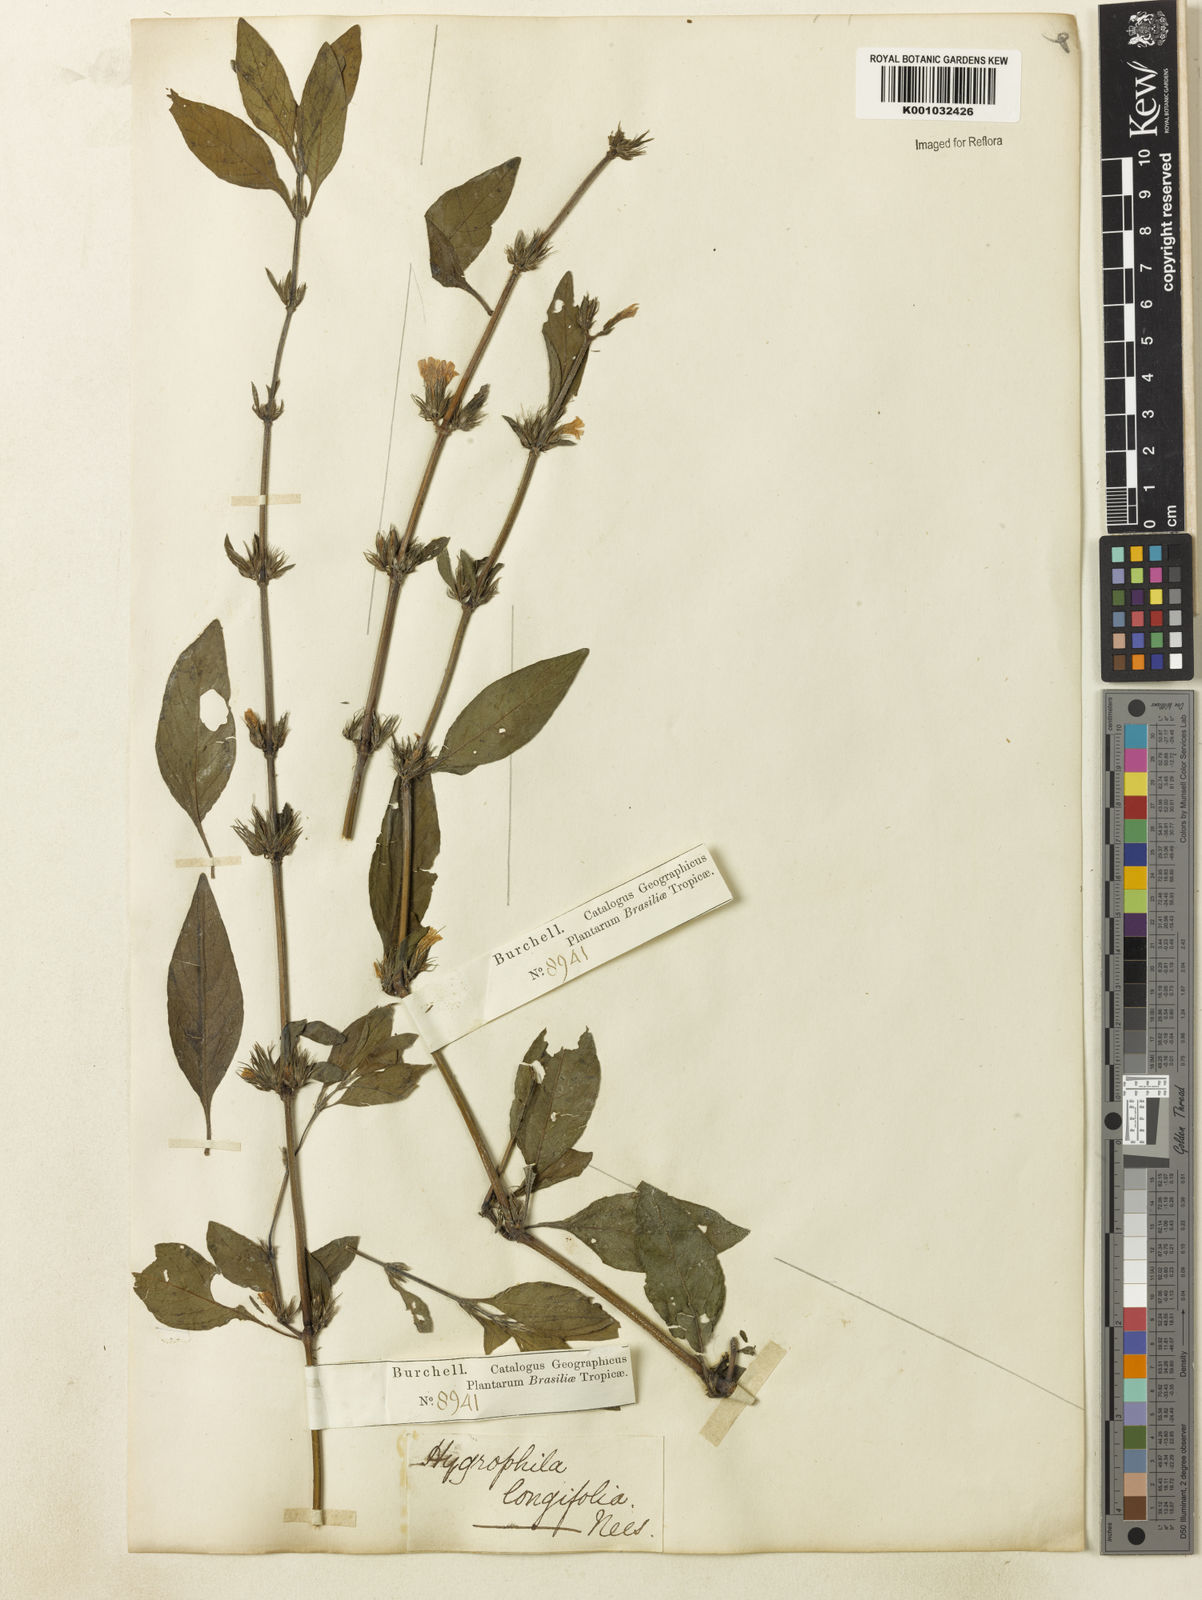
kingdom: Plantae
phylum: Tracheophyta
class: Magnoliopsida
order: Lamiales
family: Acanthaceae
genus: Hygrophila
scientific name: Hygrophila costata
